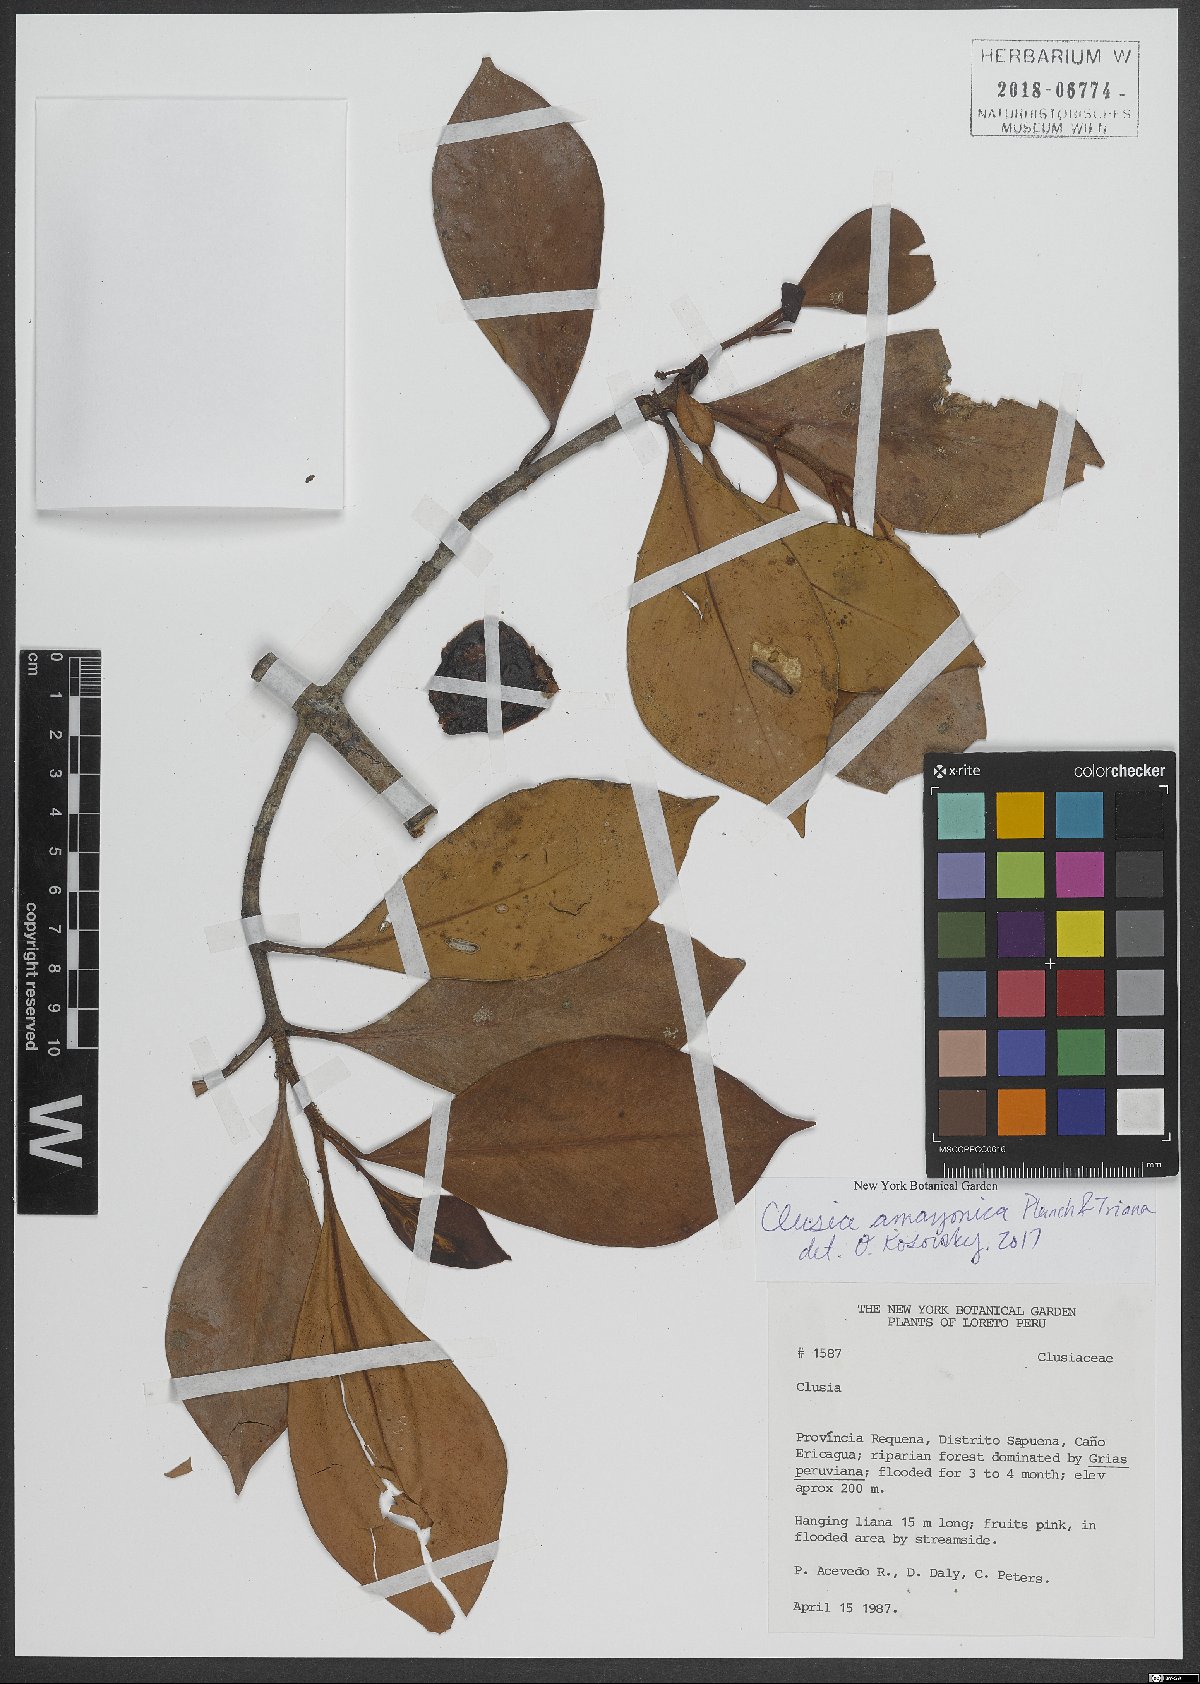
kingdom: Plantae
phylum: Tracheophyta
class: Magnoliopsida
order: Malpighiales
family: Clusiaceae
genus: Clusia
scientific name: Clusia amazonica
